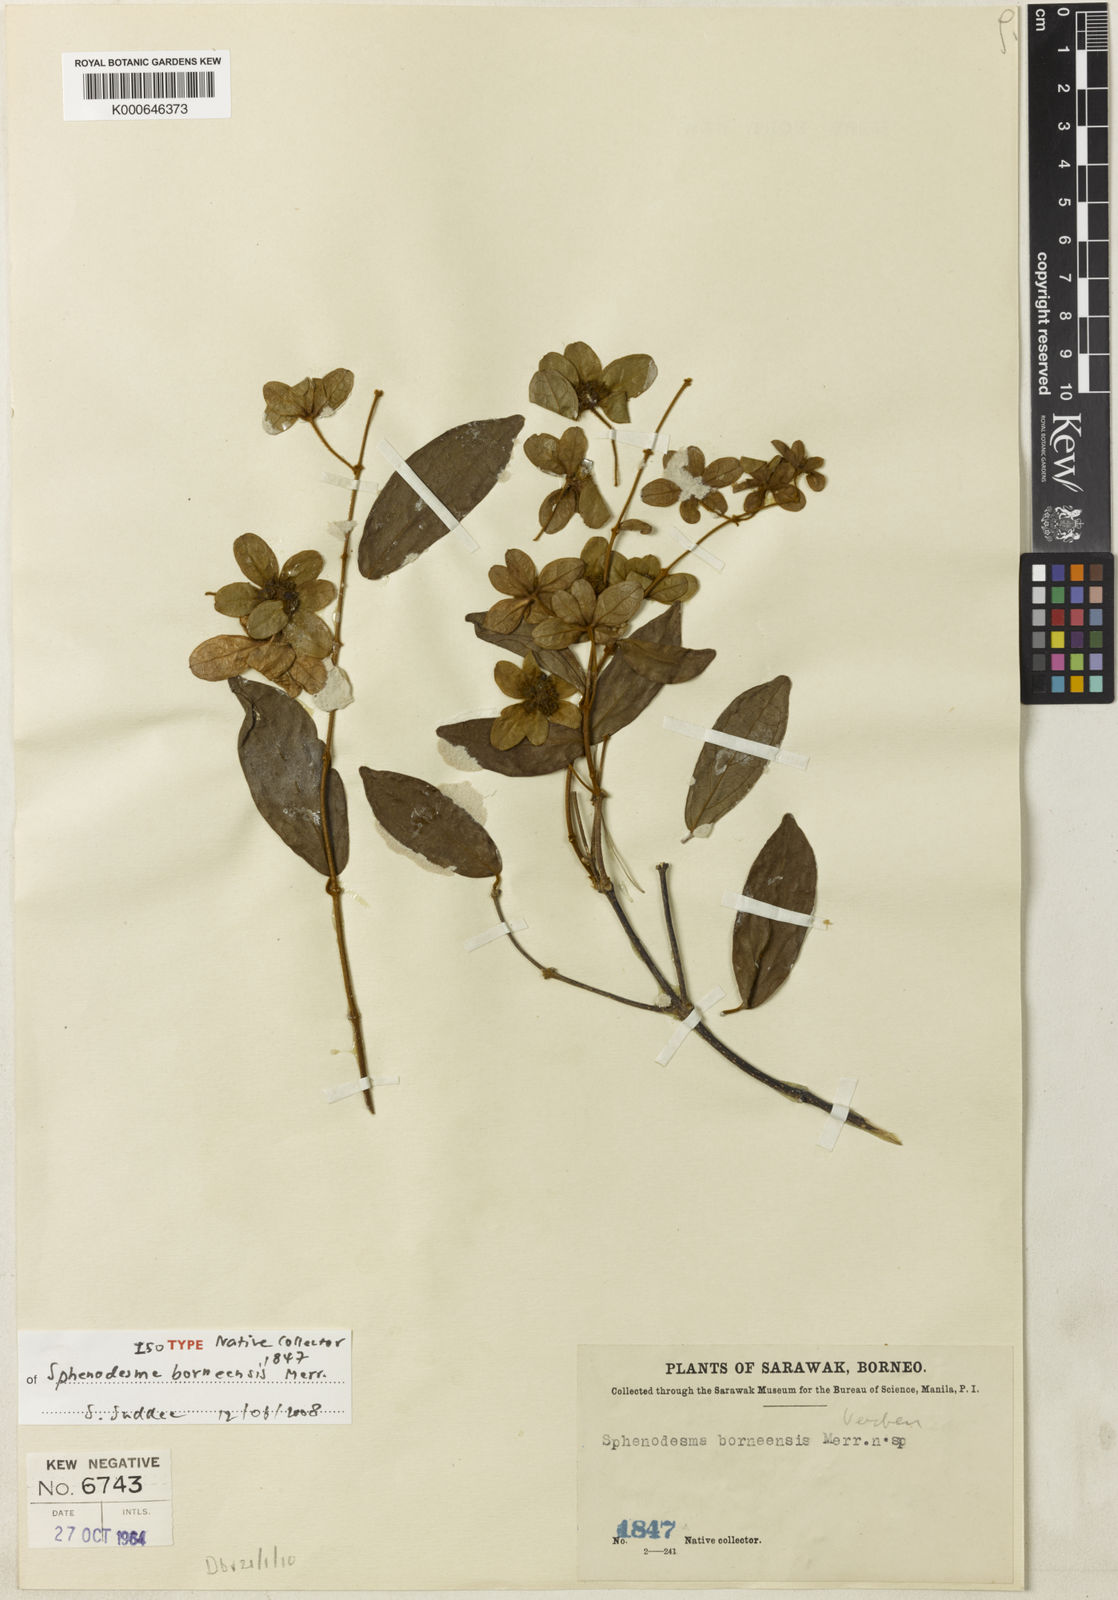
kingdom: Plantae
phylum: Tracheophyta
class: Magnoliopsida
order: Lamiales
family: Lamiaceae
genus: Sphenodesme
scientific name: Sphenodesme racemosa
